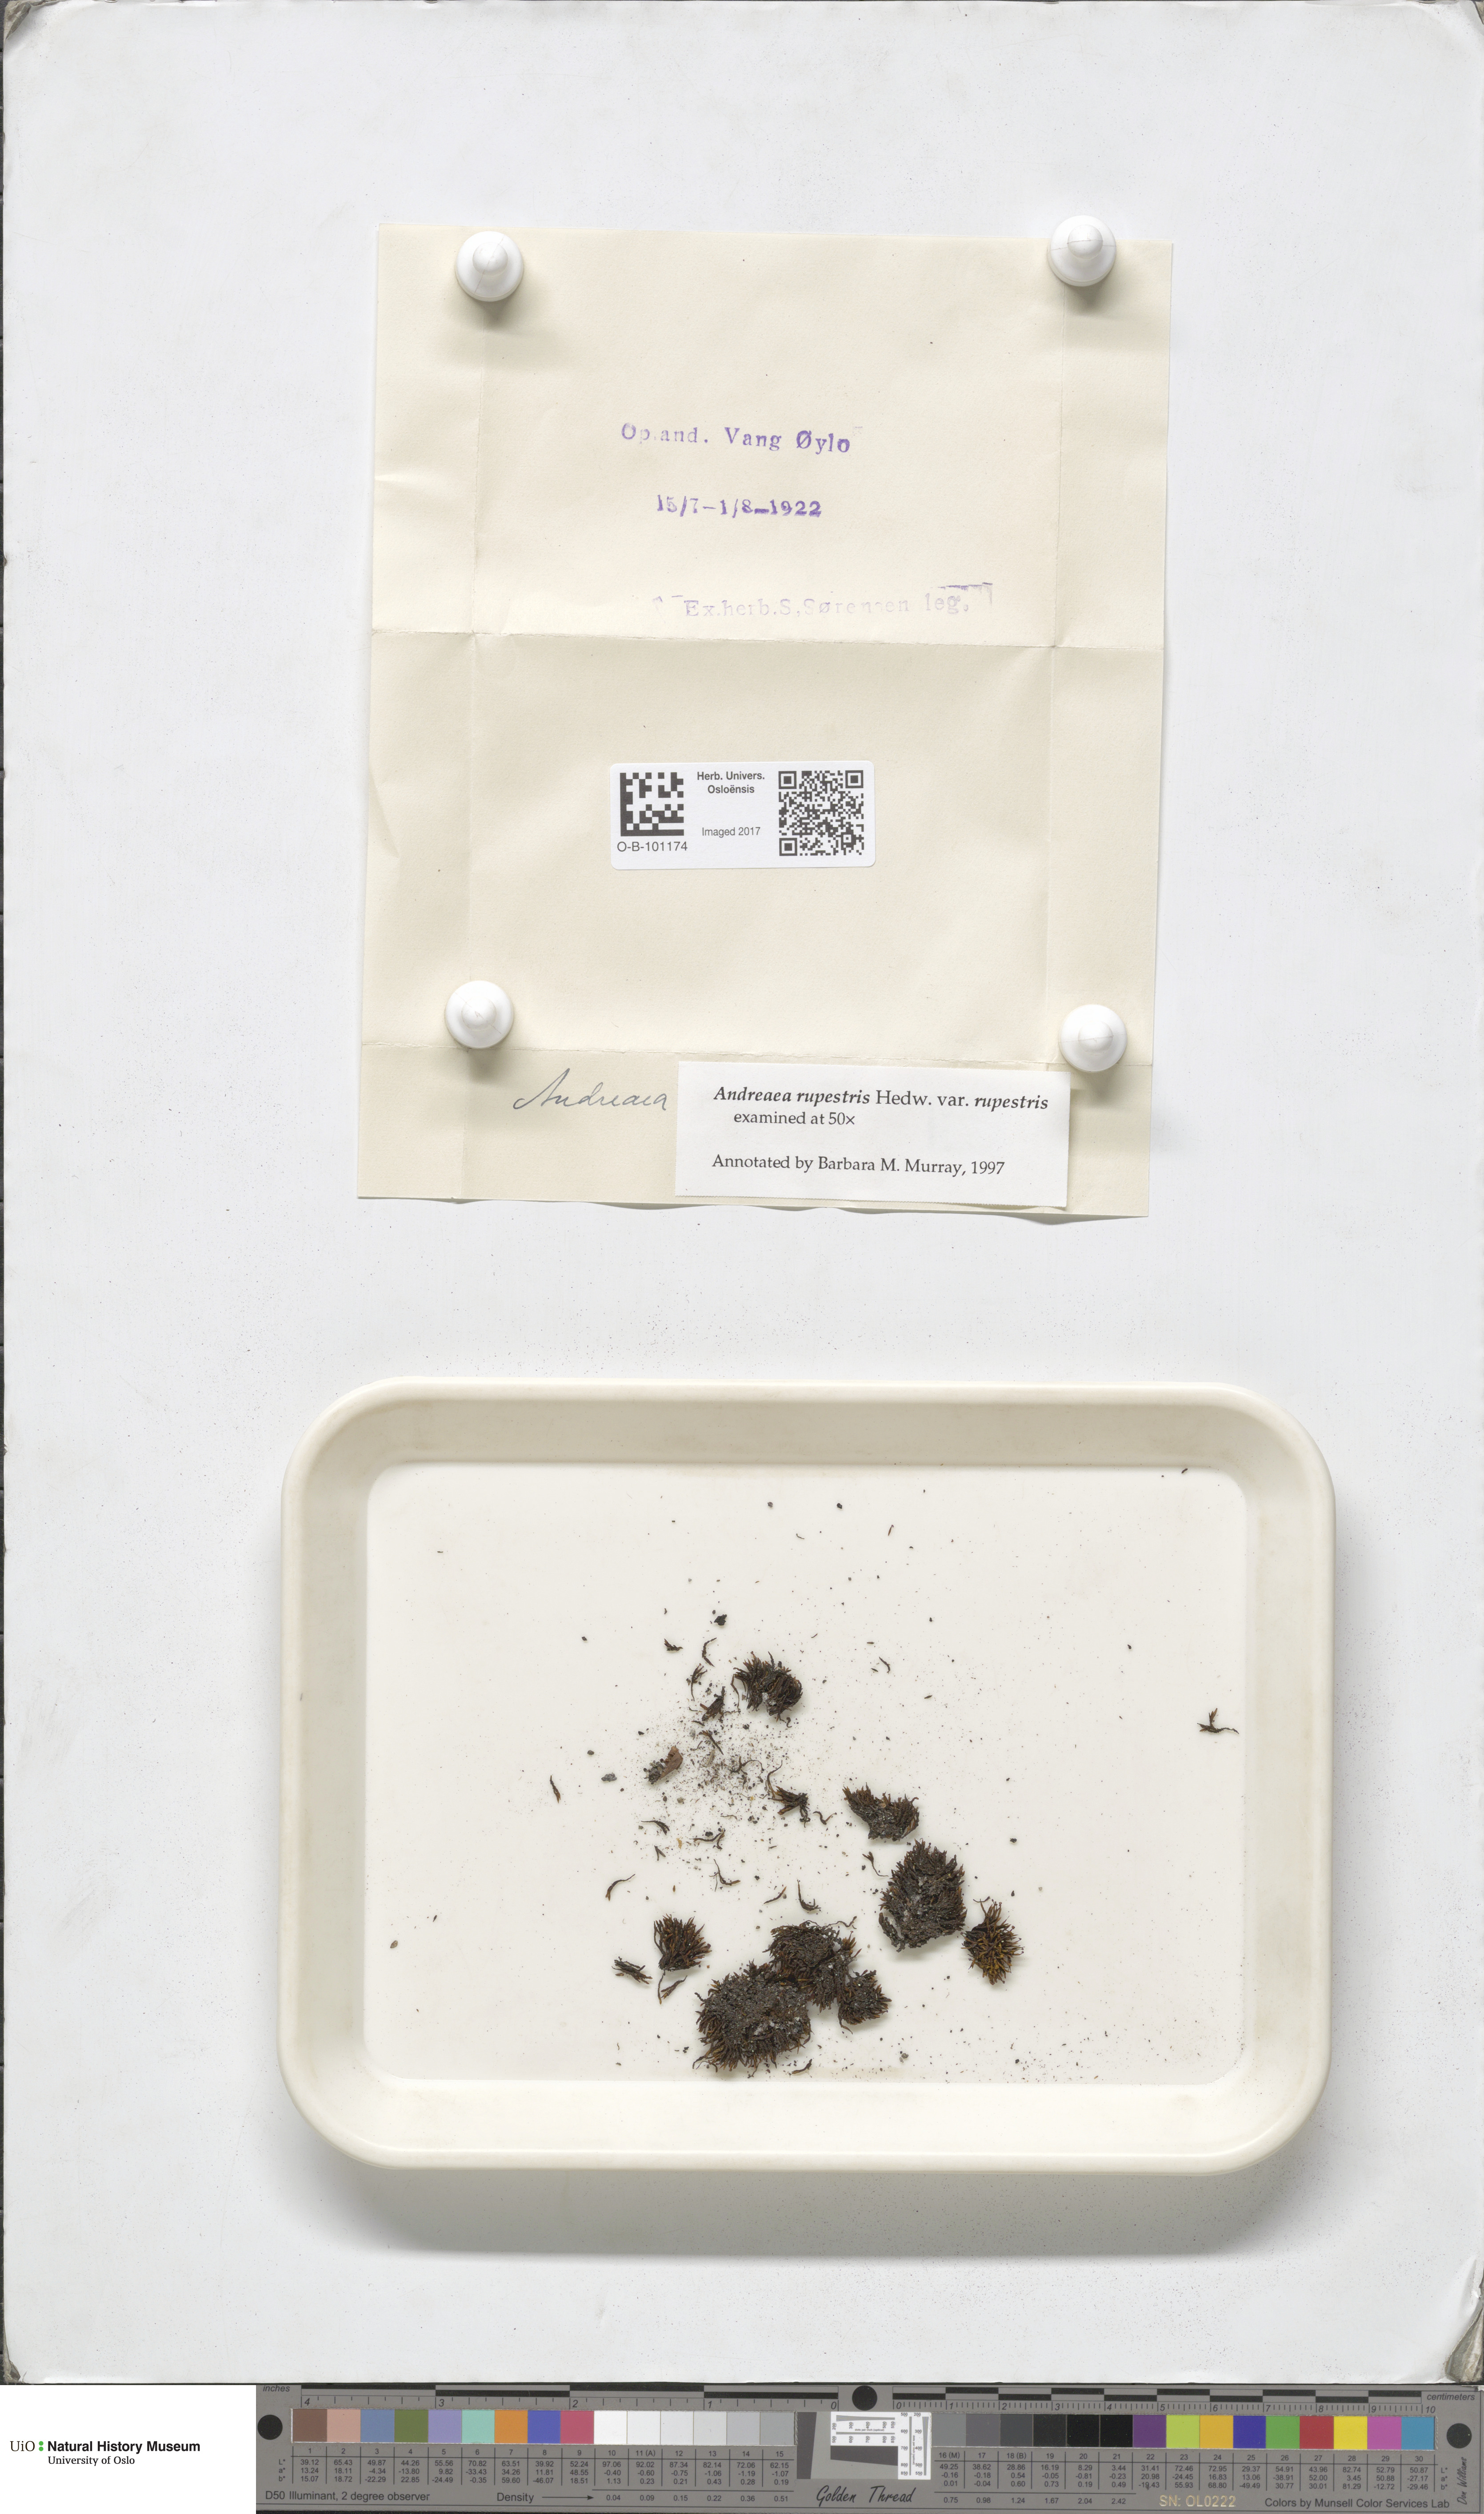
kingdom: Plantae
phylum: Bryophyta
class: Andreaeopsida
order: Andreaeales
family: Andreaeaceae
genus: Andreaea
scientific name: Andreaea rupestris
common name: Black rock moss
